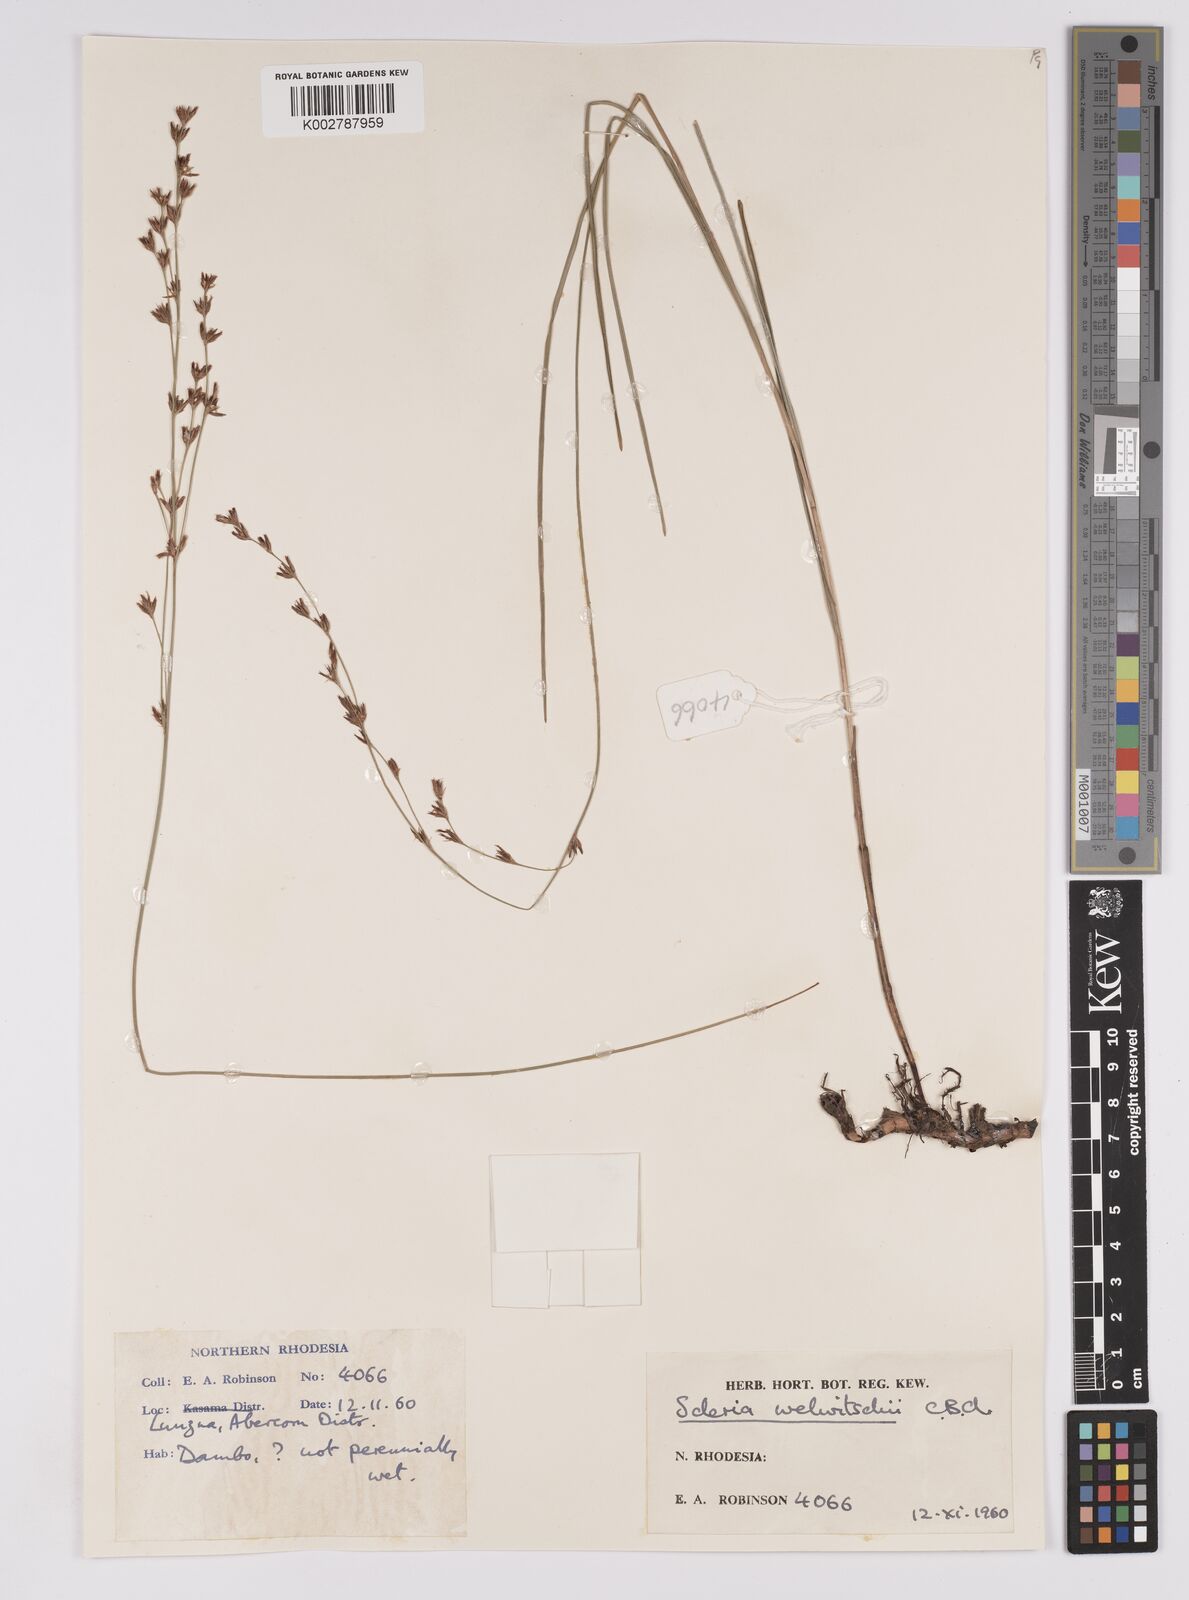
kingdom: Plantae
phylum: Tracheophyta
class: Liliopsida
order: Poales
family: Cyperaceae
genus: Scleria
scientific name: Scleria welwitschii
